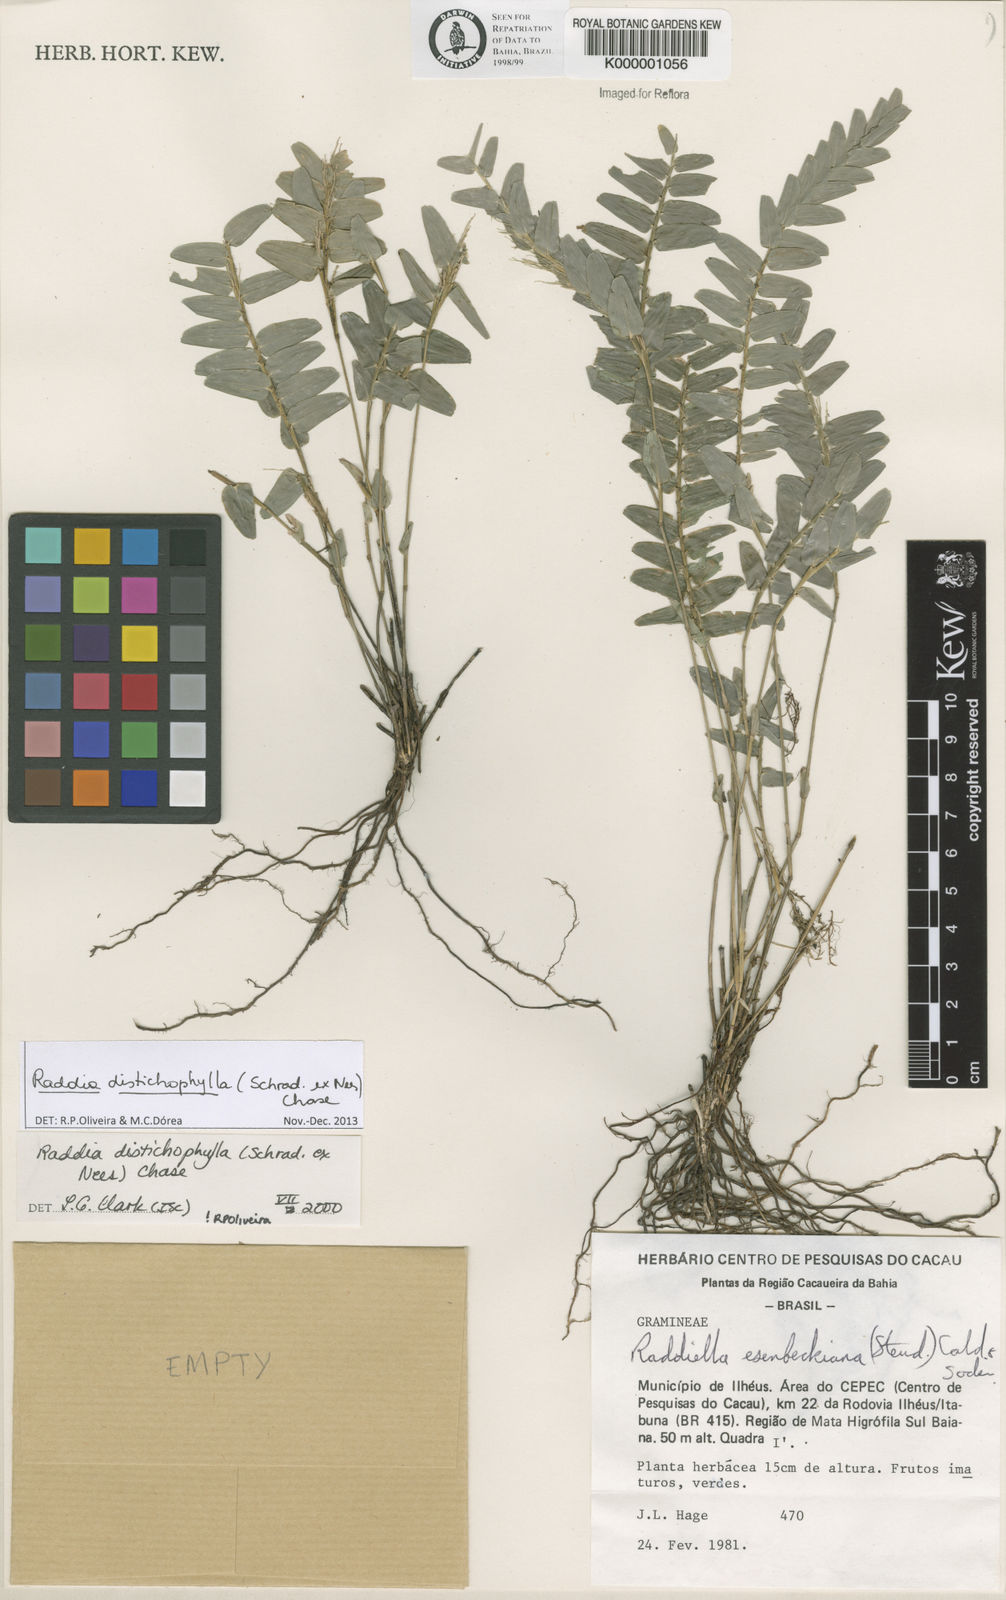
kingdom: Plantae
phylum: Tracheophyta
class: Liliopsida
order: Poales
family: Poaceae
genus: Raddia
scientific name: Raddia distichophylla
